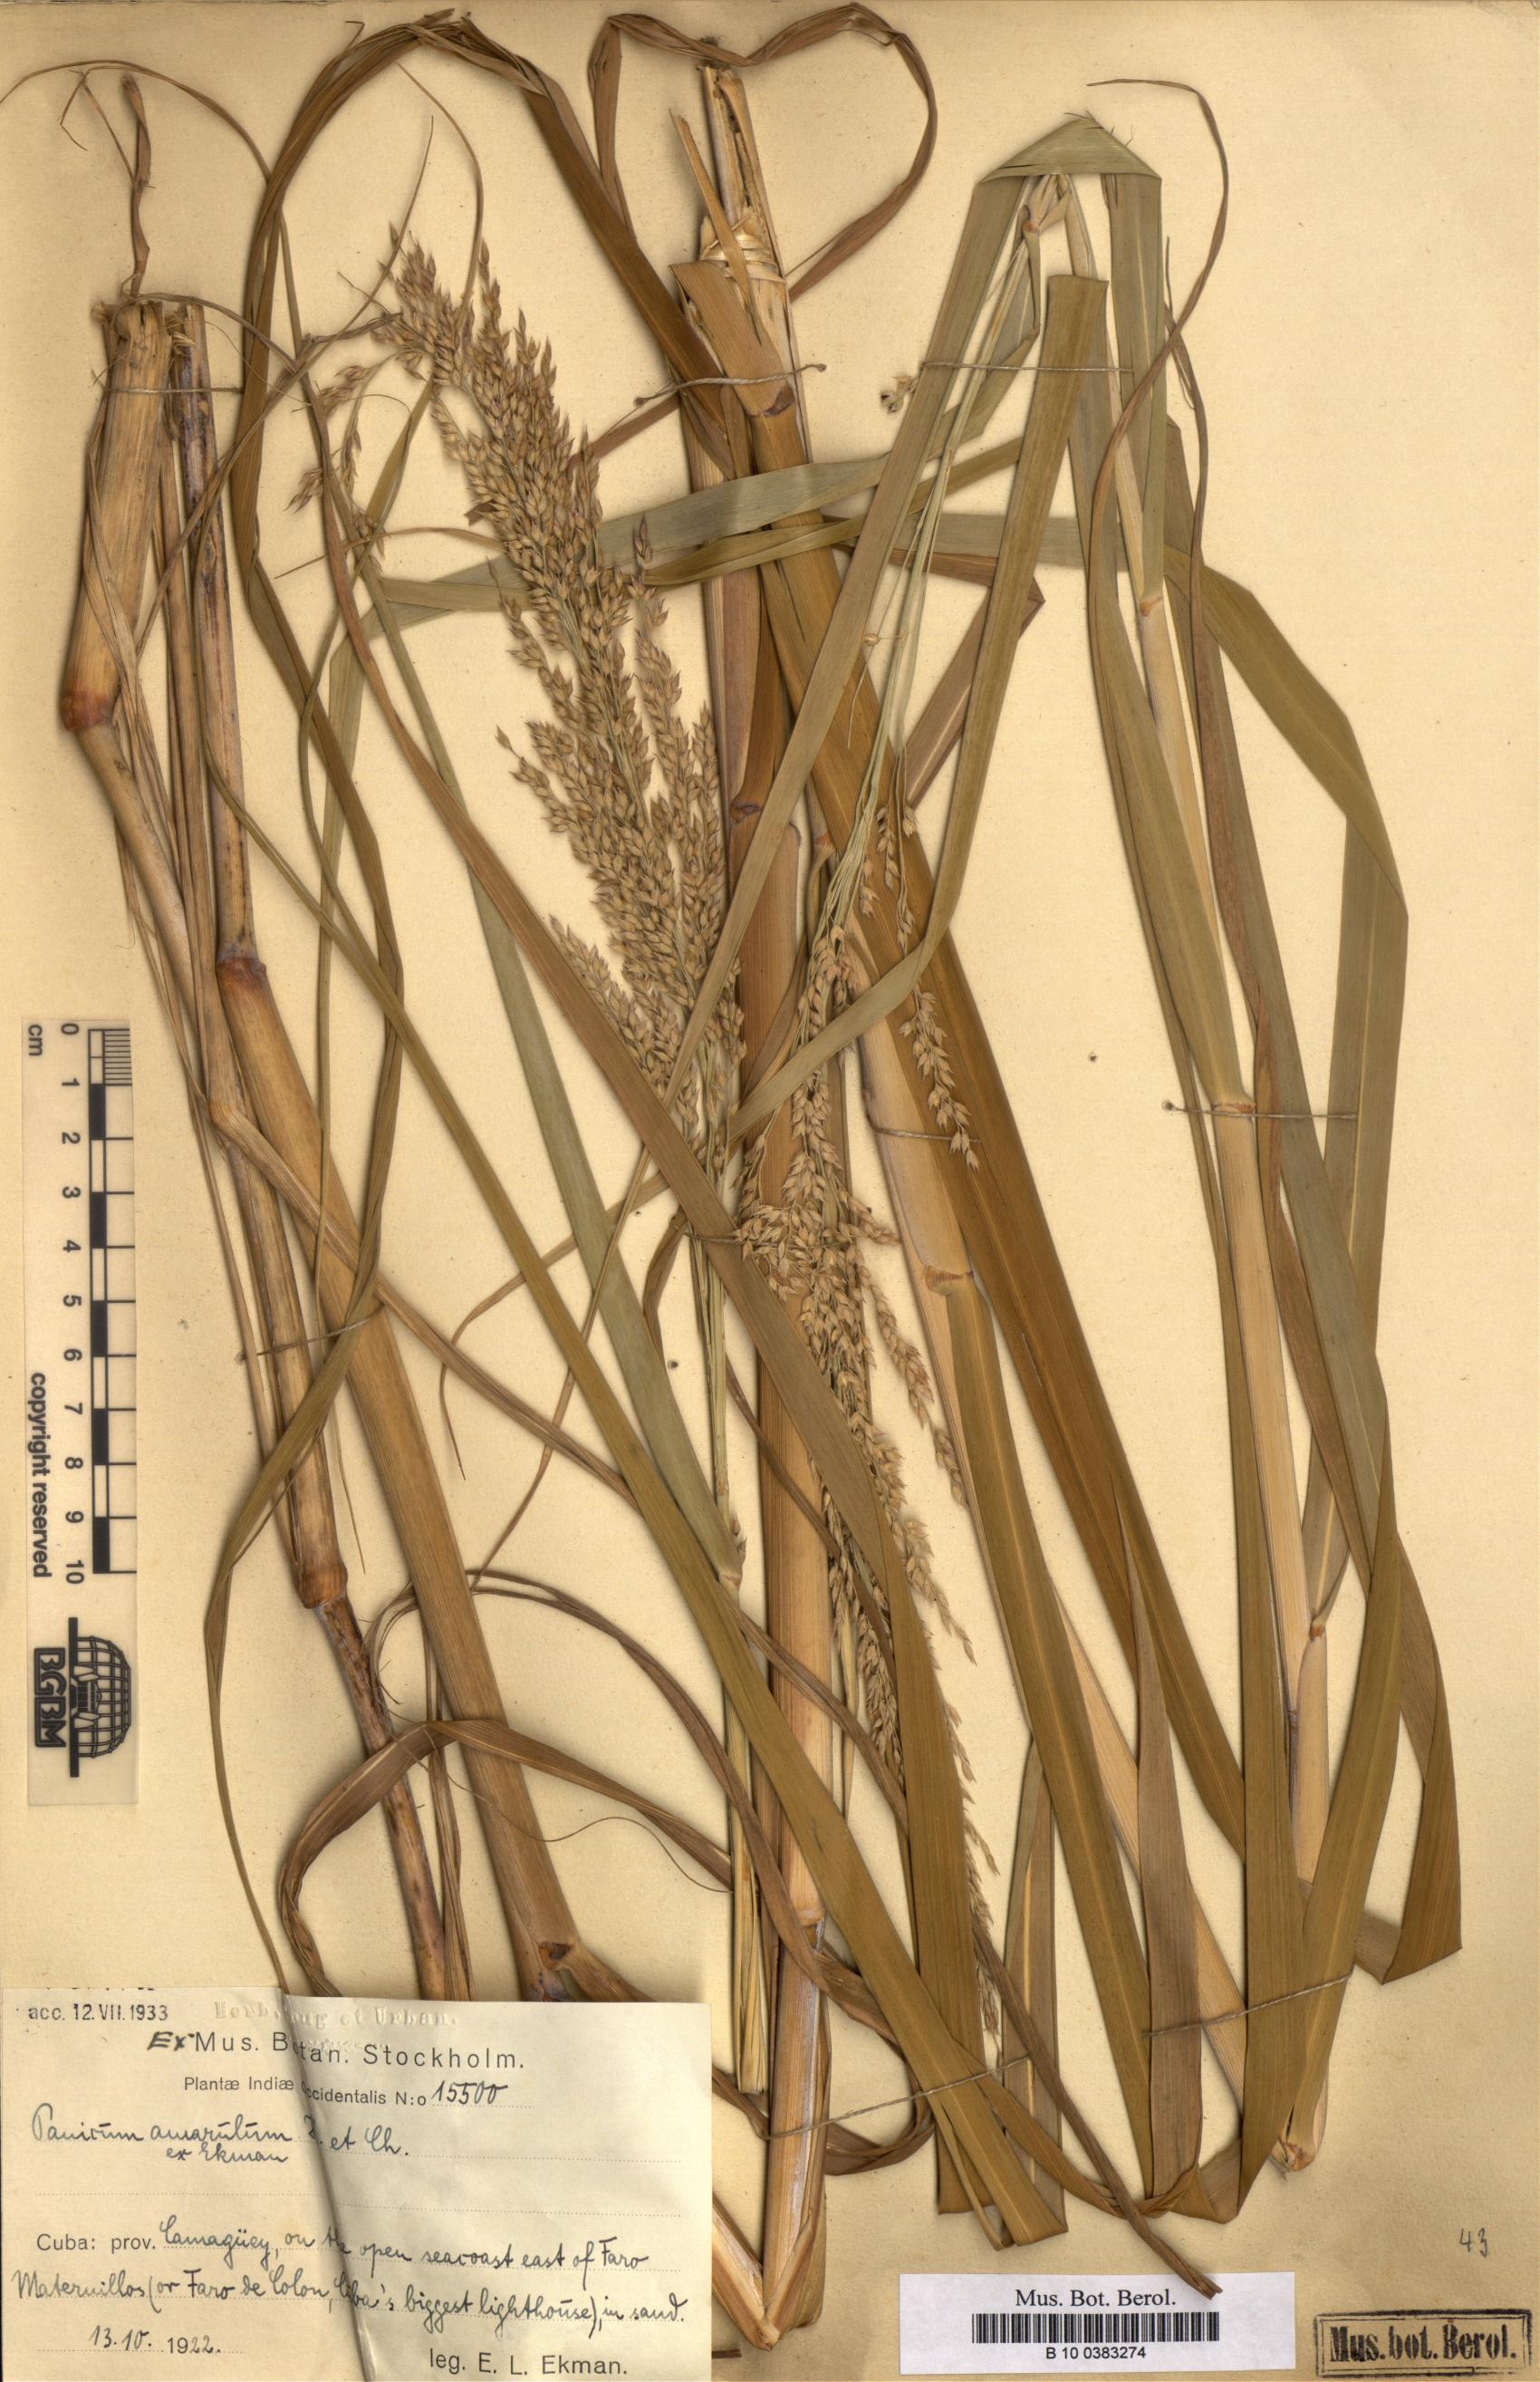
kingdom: Plantae
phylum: Tracheophyta
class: Liliopsida
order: Poales
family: Poaceae
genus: Panicum
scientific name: Panicum amarum
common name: Bitter panicum
